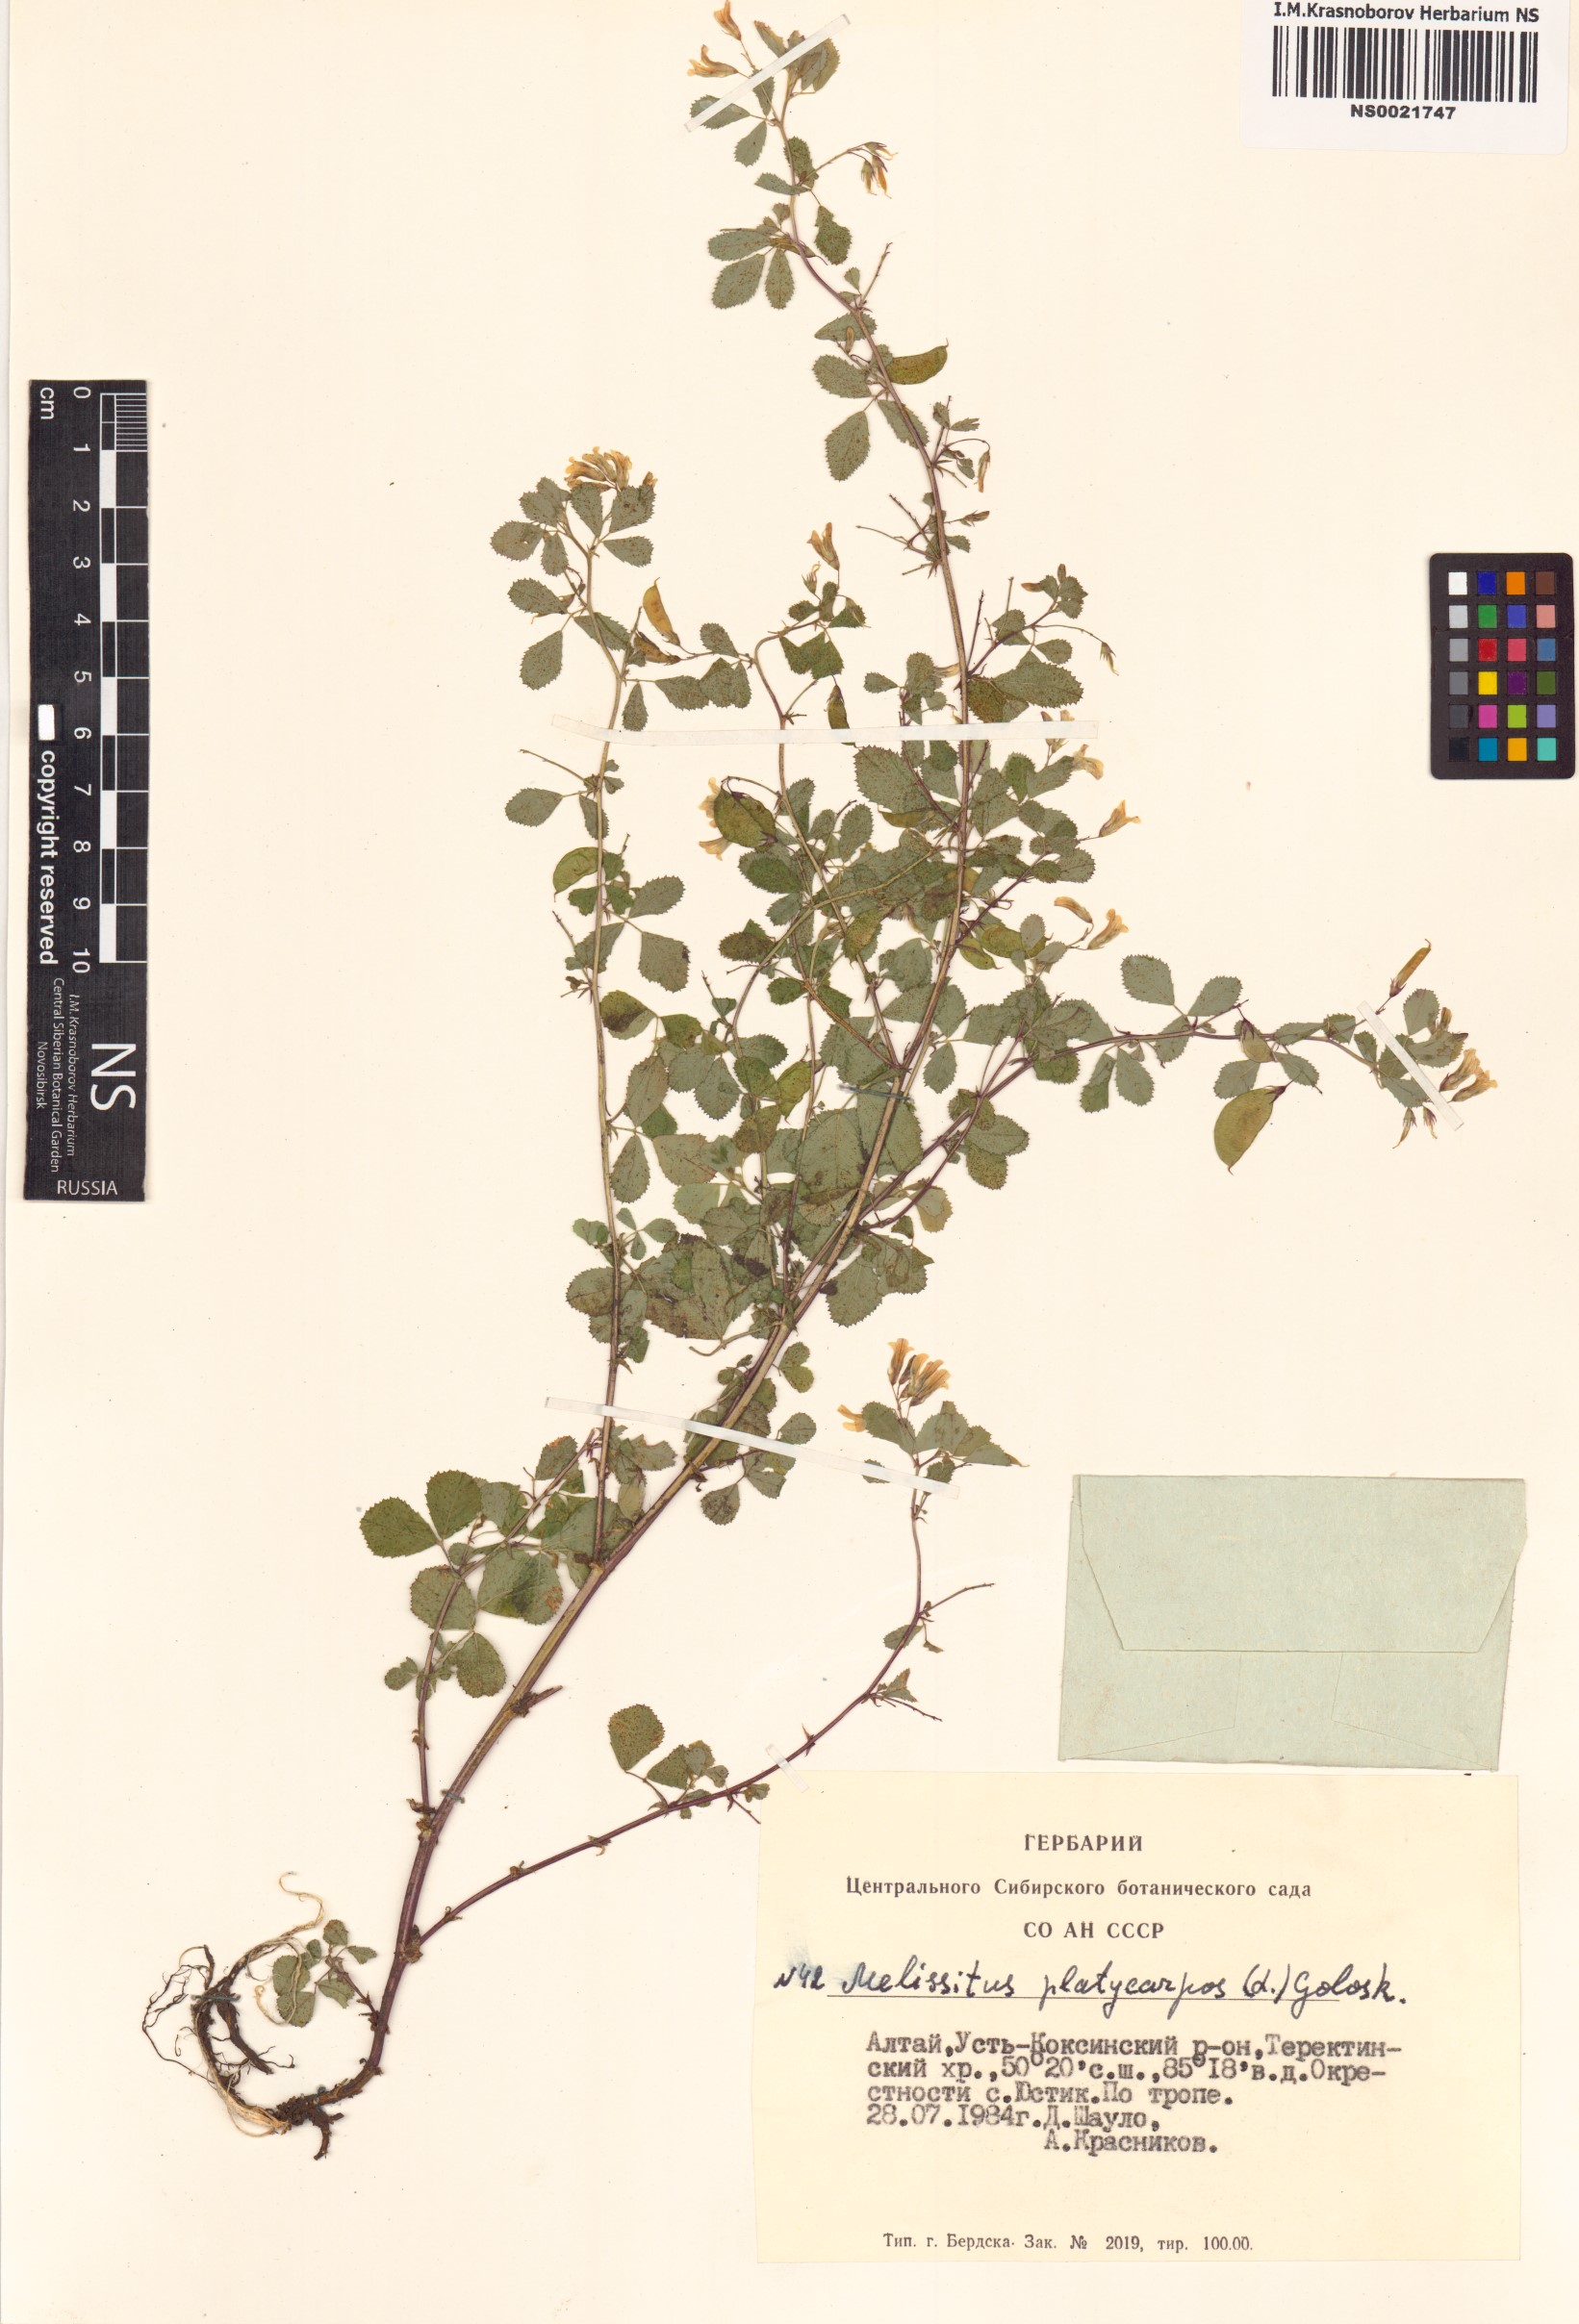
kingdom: Plantae
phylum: Tracheophyta
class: Magnoliopsida
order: Fabales
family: Fabaceae
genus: Medicago
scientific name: Medicago platycarpos
